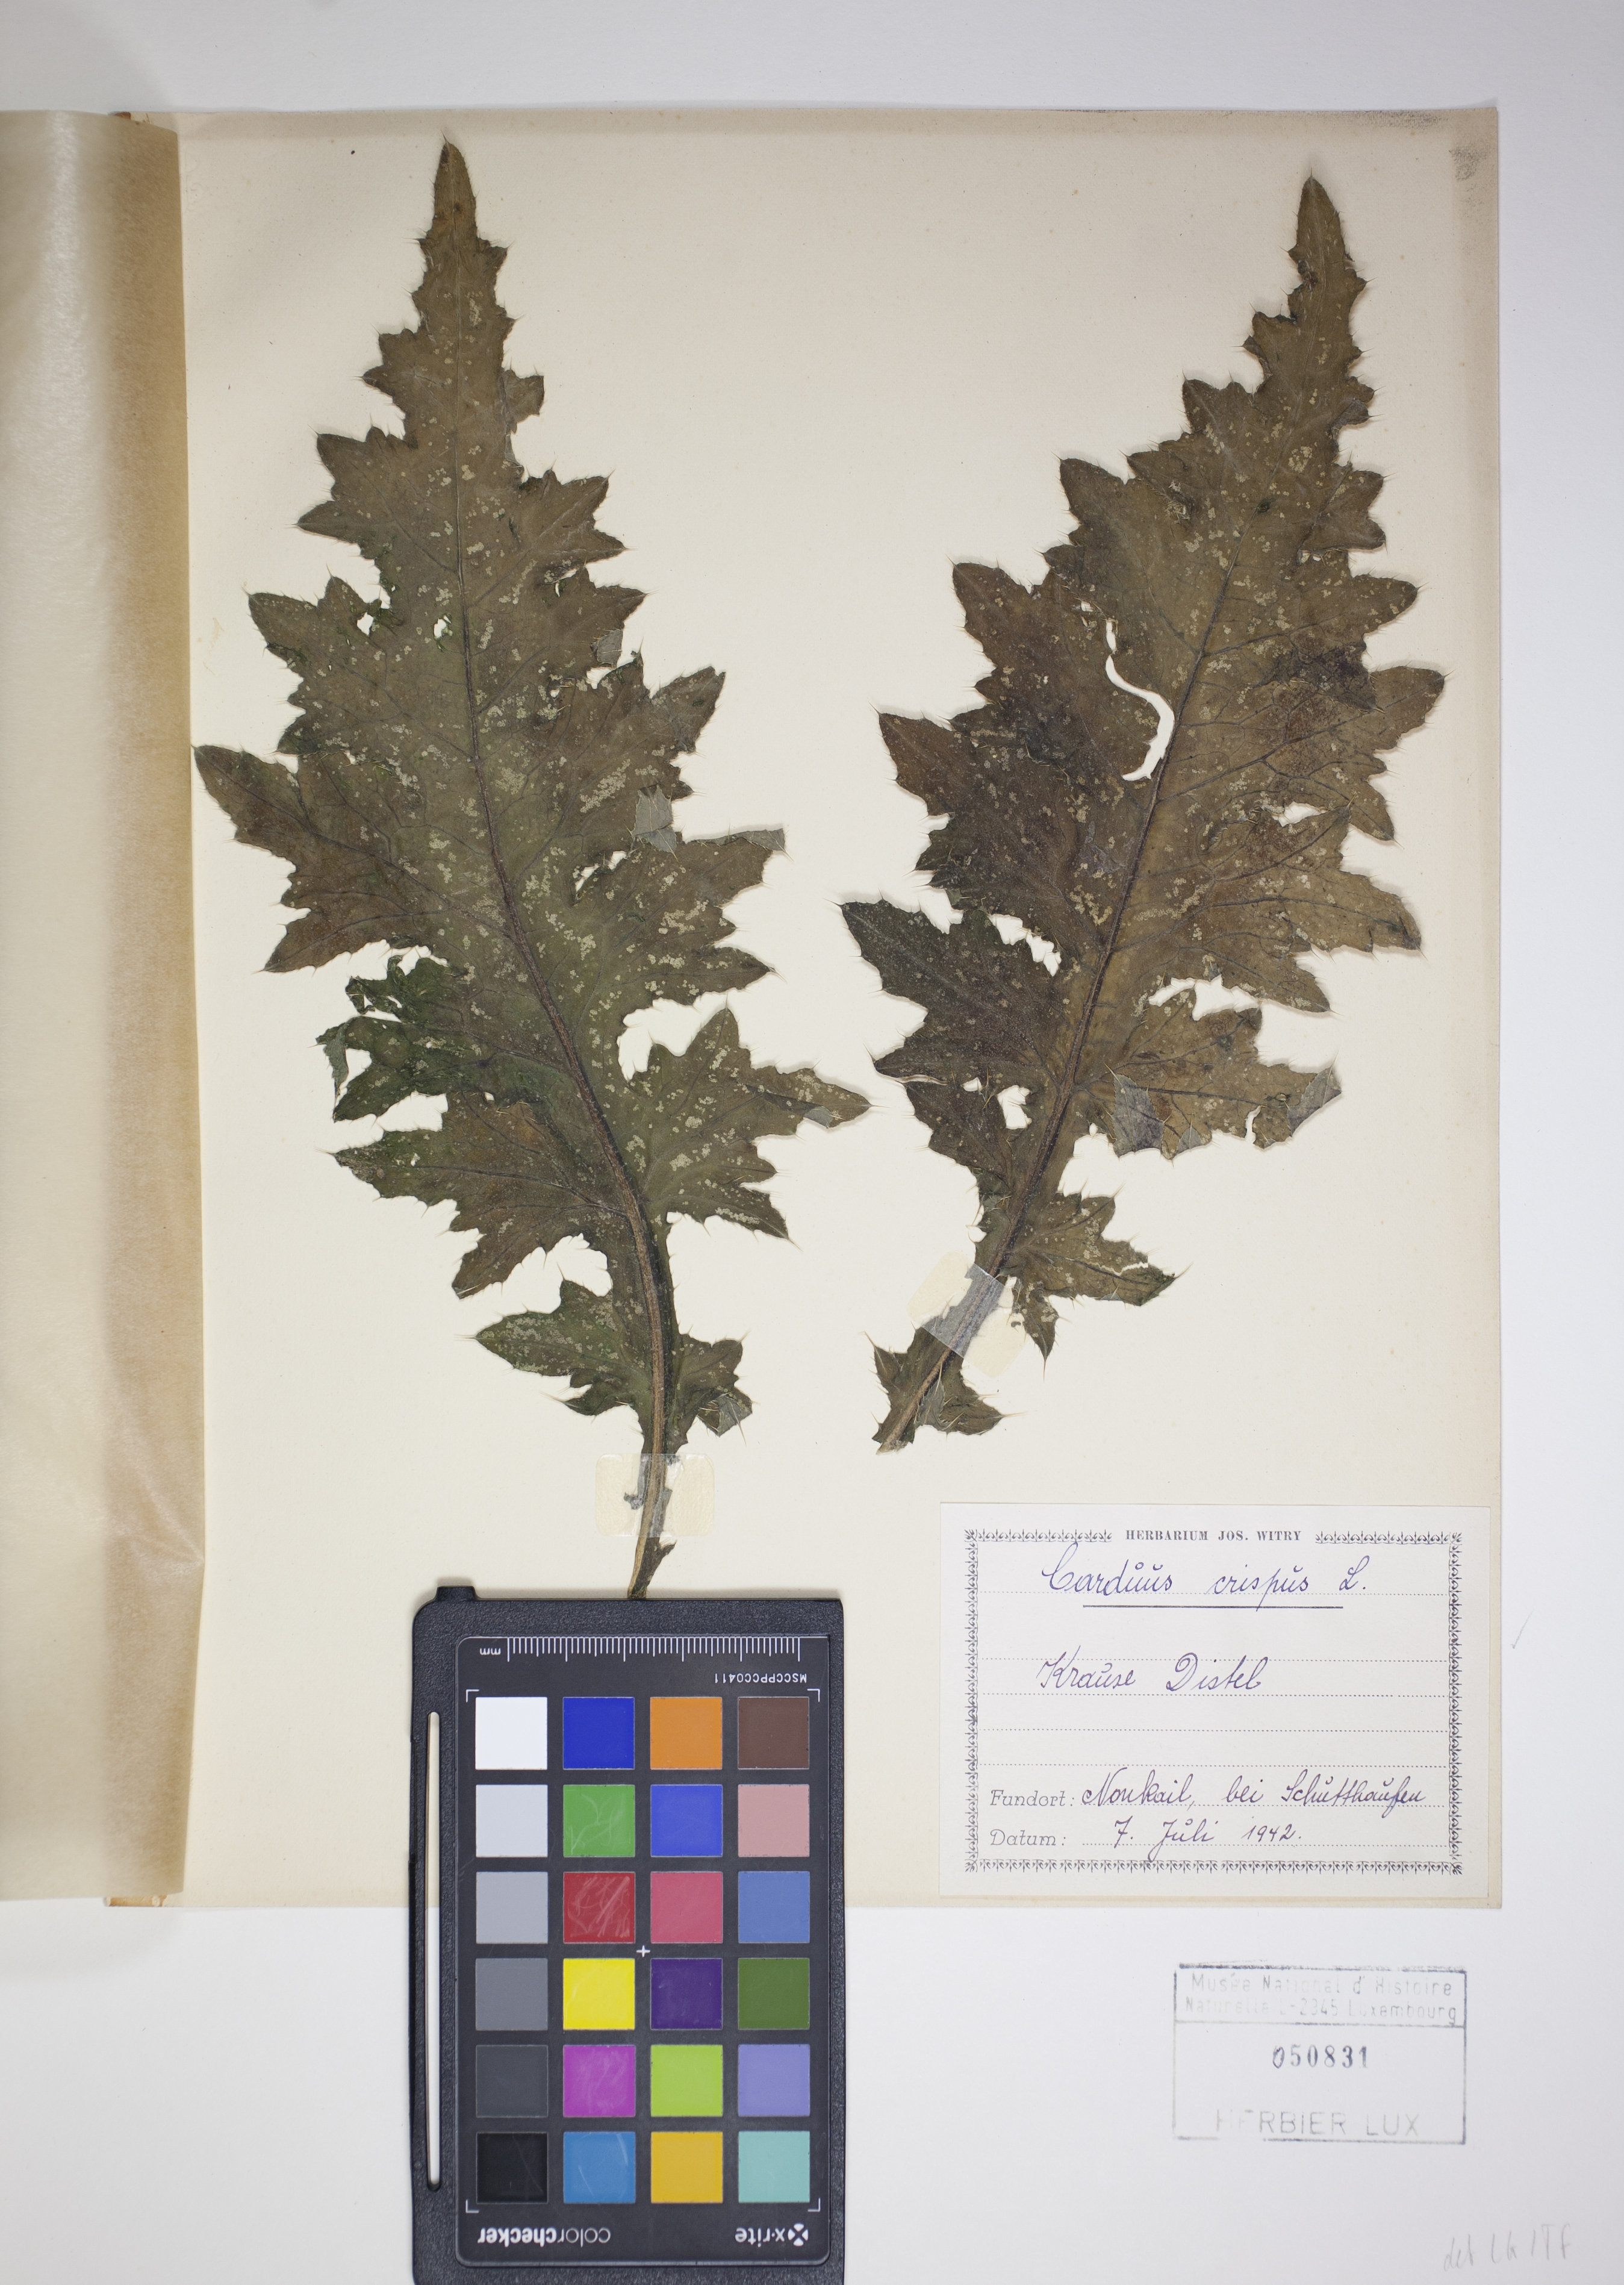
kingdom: Plantae
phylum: Tracheophyta
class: Magnoliopsida
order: Asterales
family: Asteraceae
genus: Carduus
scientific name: Carduus crispus
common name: Welted thistle
